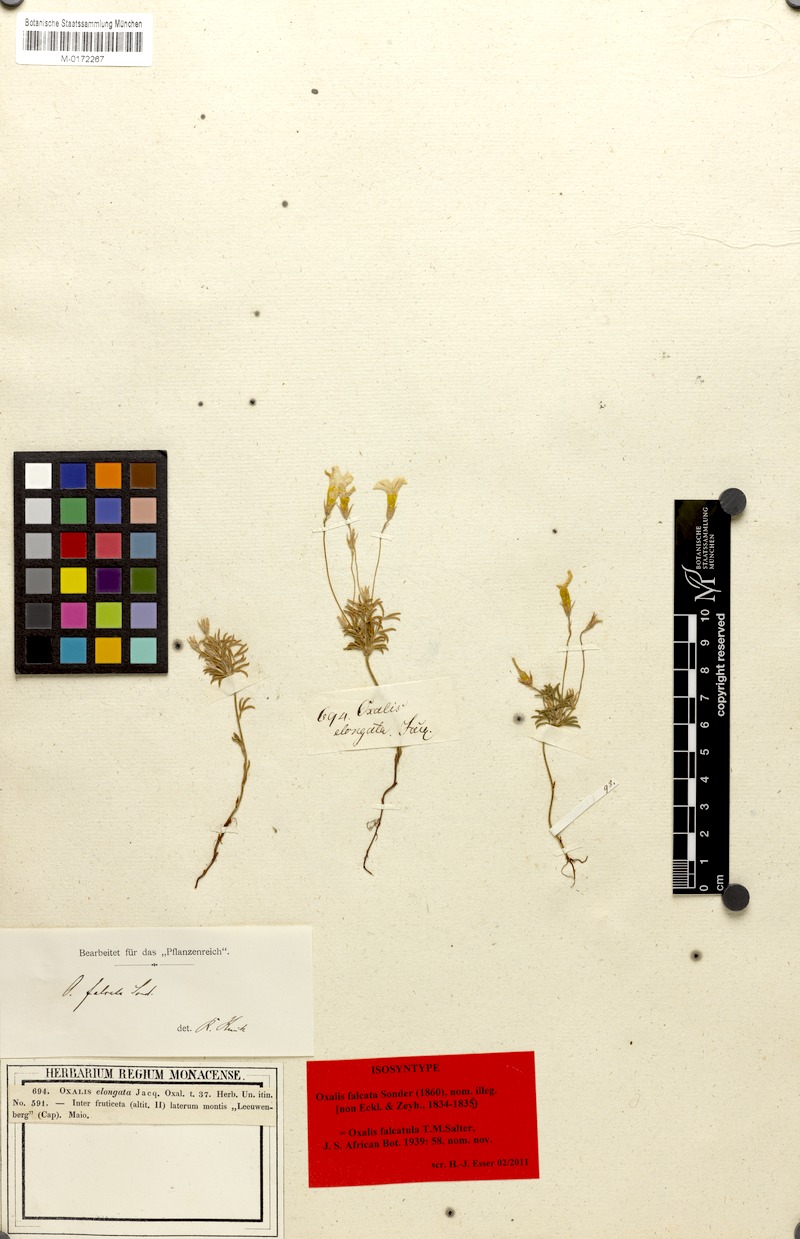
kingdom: Plantae
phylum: Tracheophyta
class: Magnoliopsida
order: Oxalidales
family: Oxalidaceae
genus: Oxalis
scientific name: Oxalis falcatula
